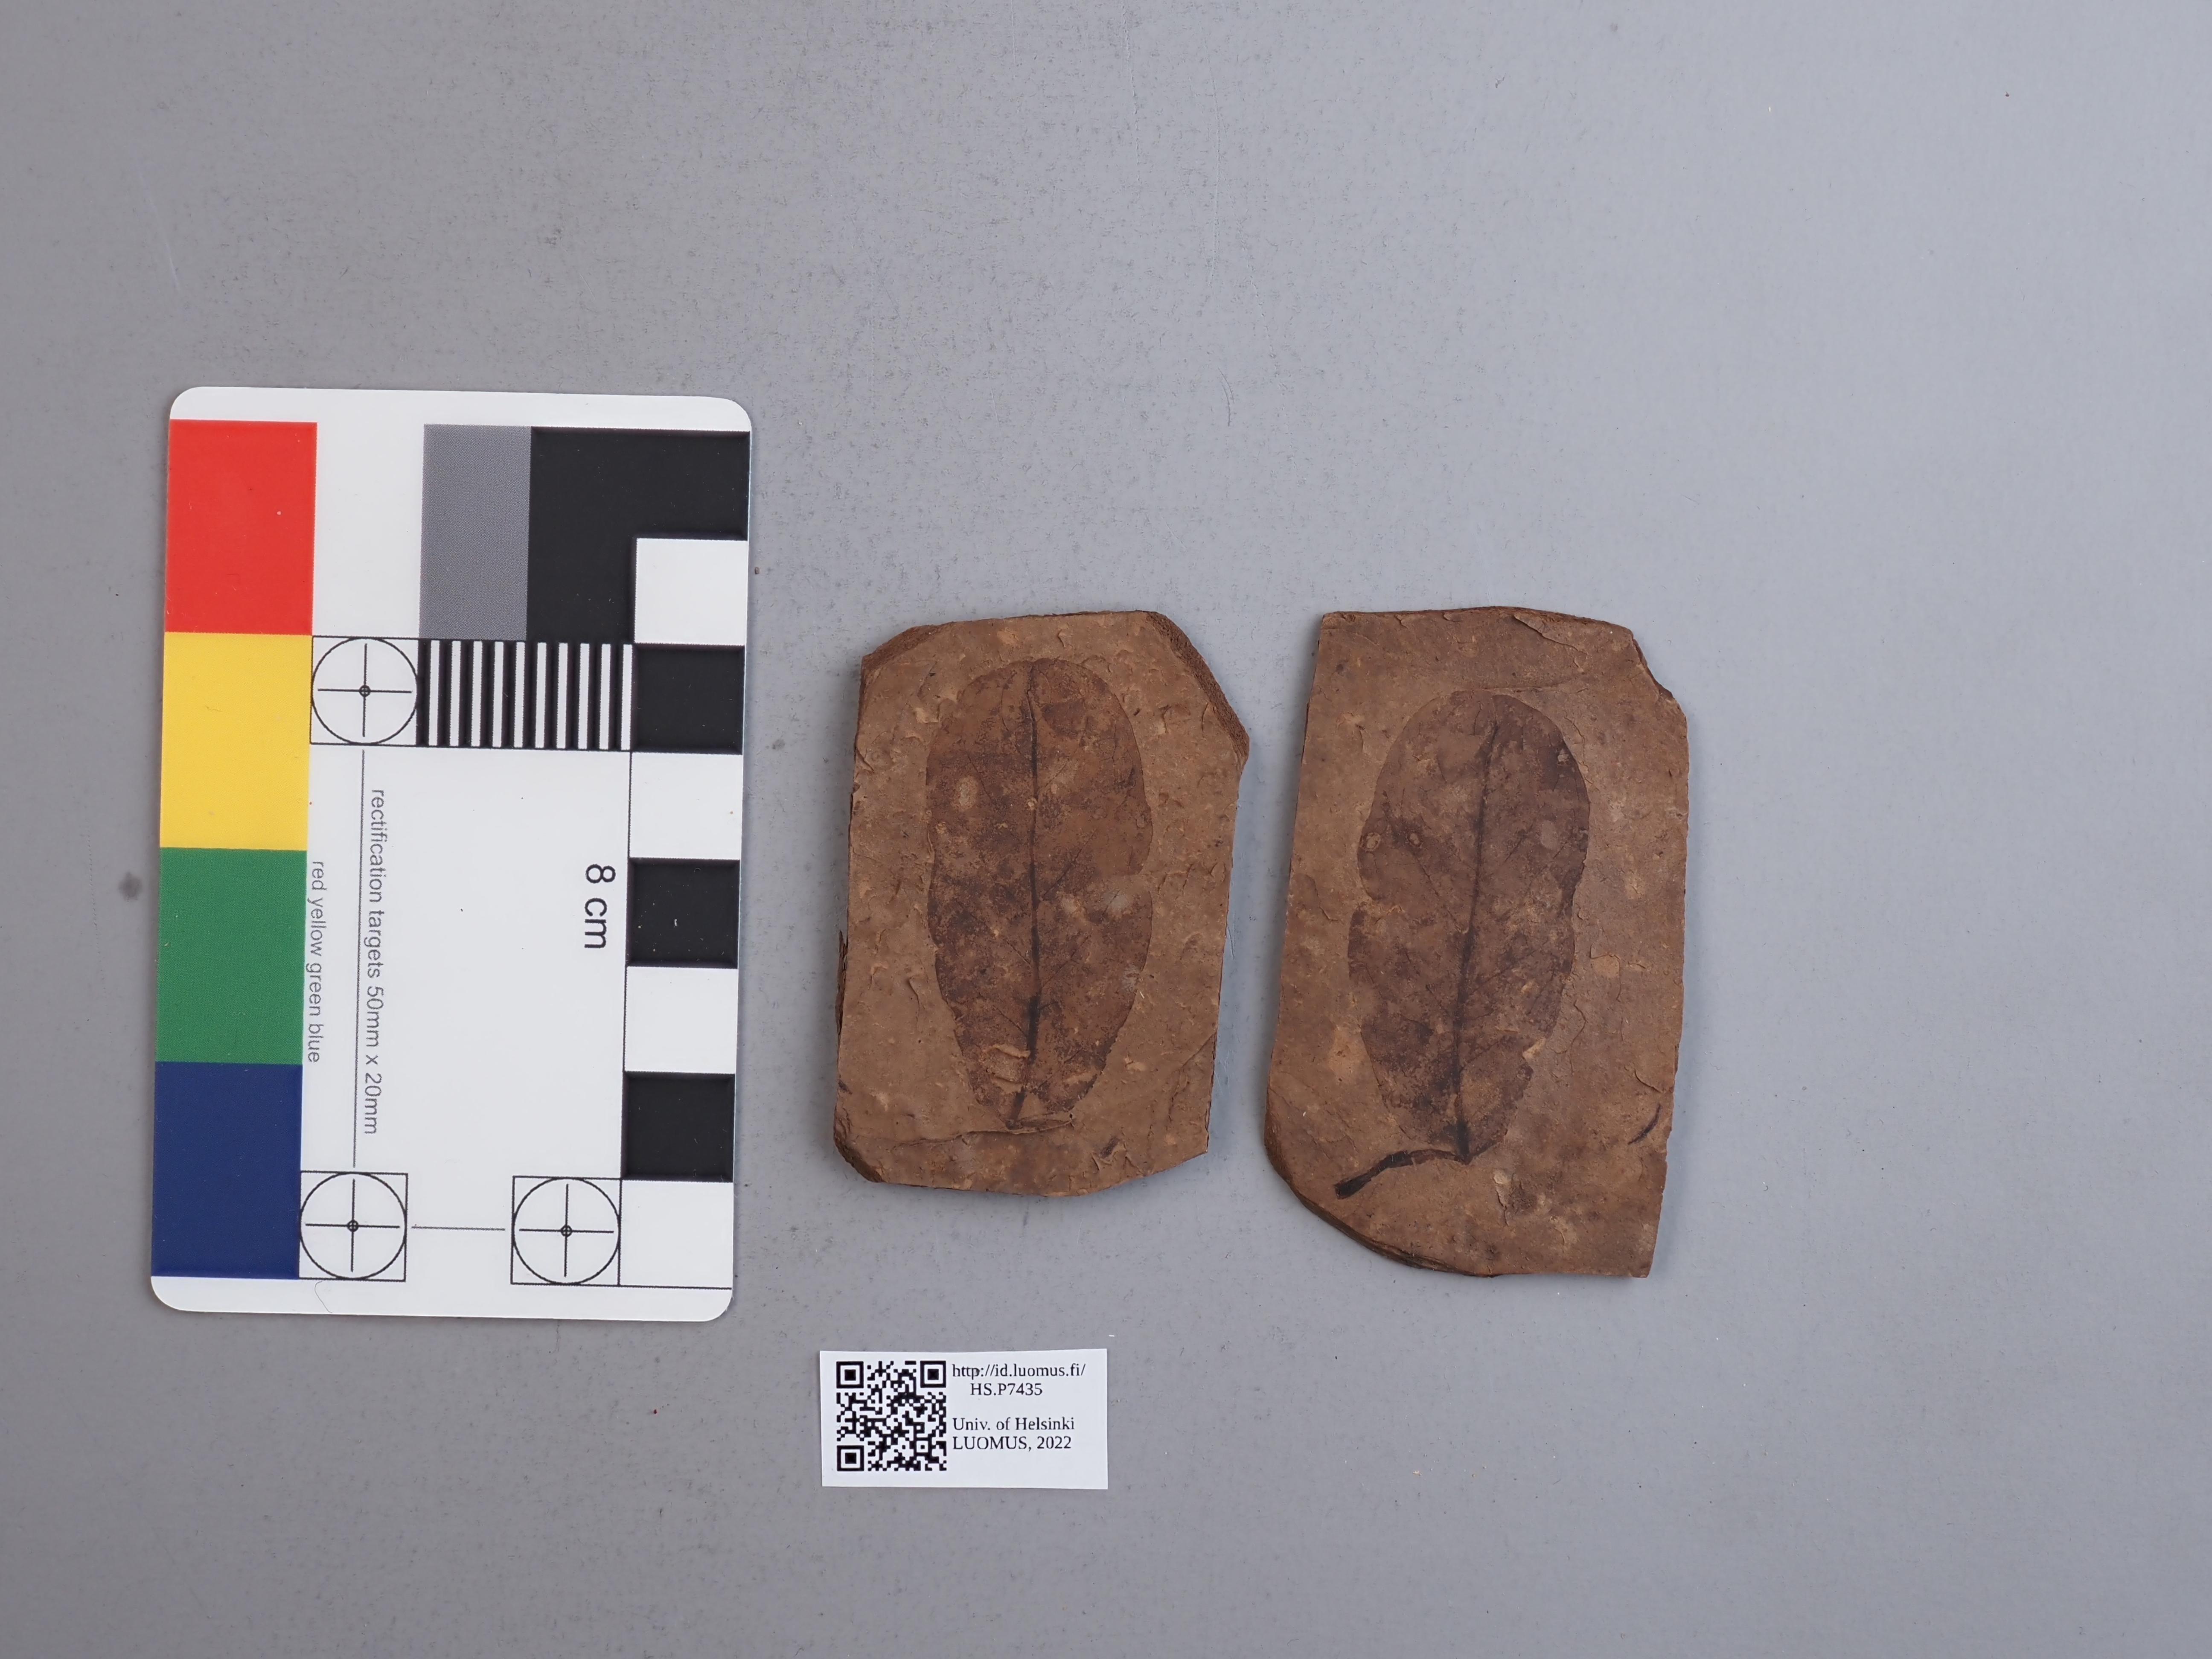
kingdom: Plantae
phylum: Tracheophyta
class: Magnoliopsida
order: Myrtales
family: Combretaceae
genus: Terminalia
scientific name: Terminalia
